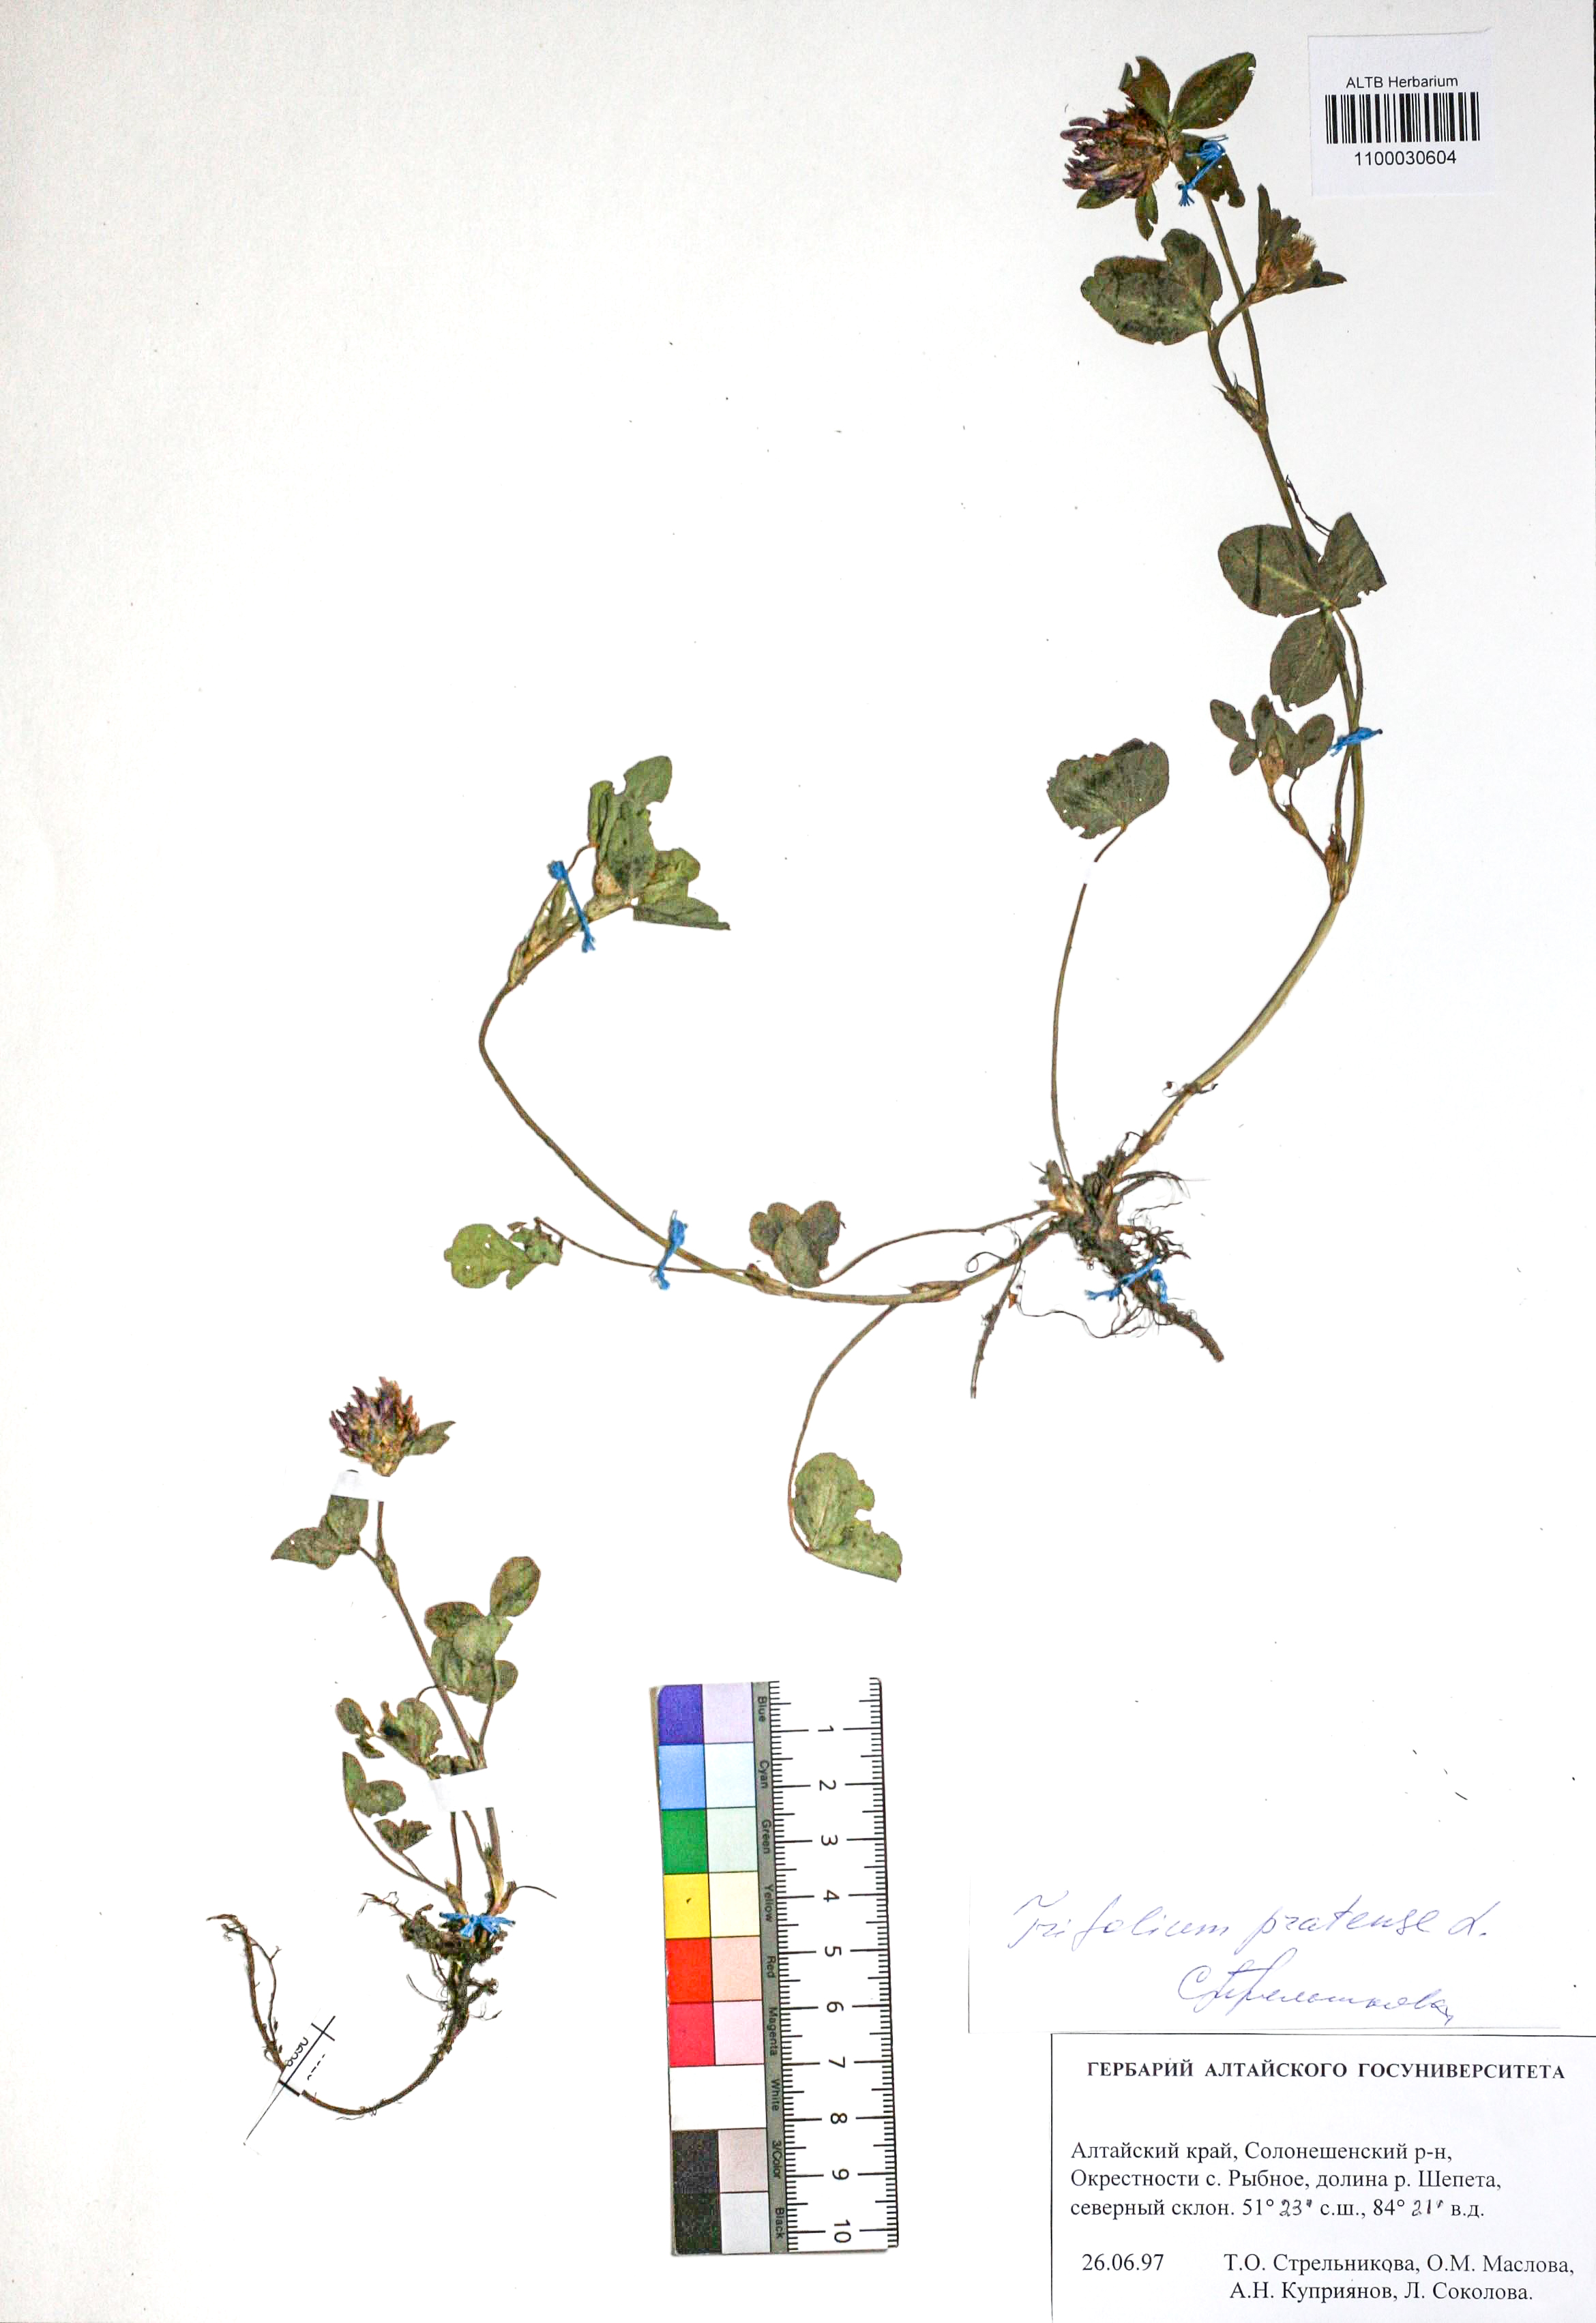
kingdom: Plantae
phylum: Tracheophyta
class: Magnoliopsida
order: Fabales
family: Fabaceae
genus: Trifolium
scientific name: Trifolium pratense
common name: Red clover
